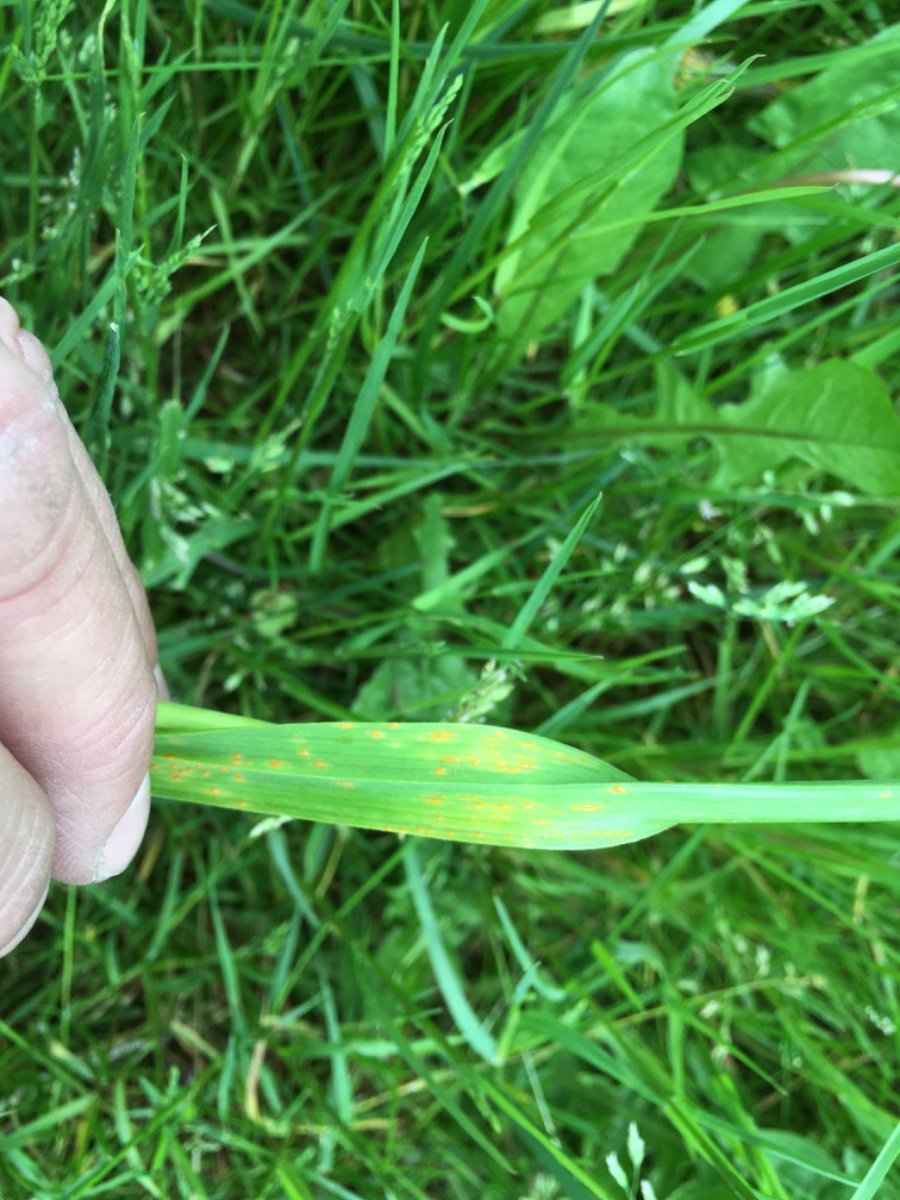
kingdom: Fungi
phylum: Basidiomycota
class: Pucciniomycetes
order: Pucciniales
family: Pucciniaceae
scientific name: Pucciniaceae
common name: rustsvampfamilien
